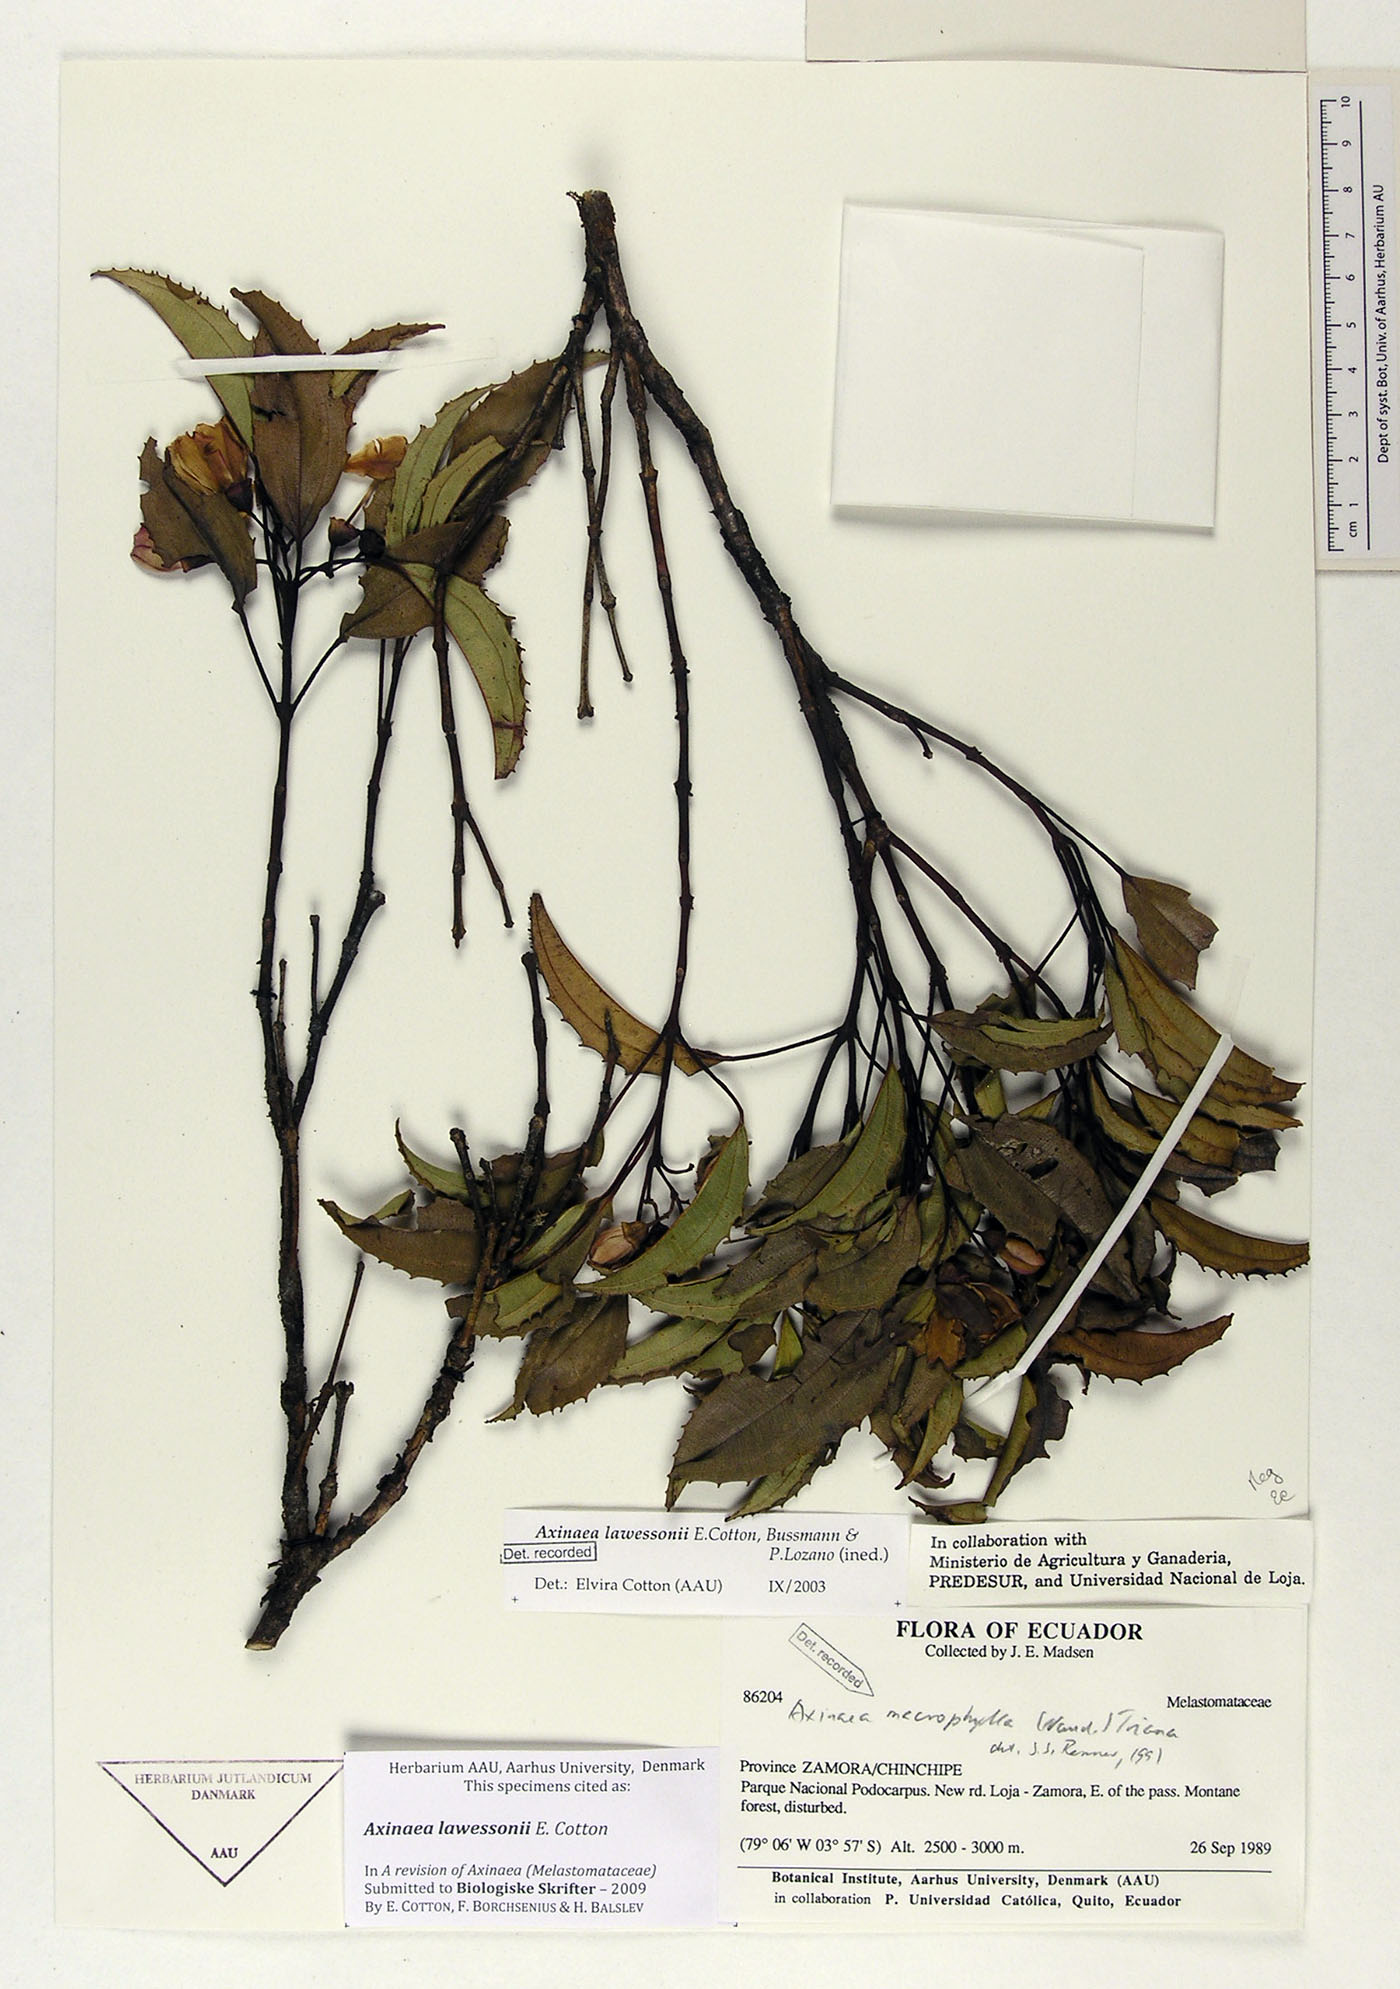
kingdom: Plantae
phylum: Tracheophyta
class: Magnoliopsida
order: Myrtales
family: Melastomataceae
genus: Axinaea
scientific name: Axinaea lawessonii
